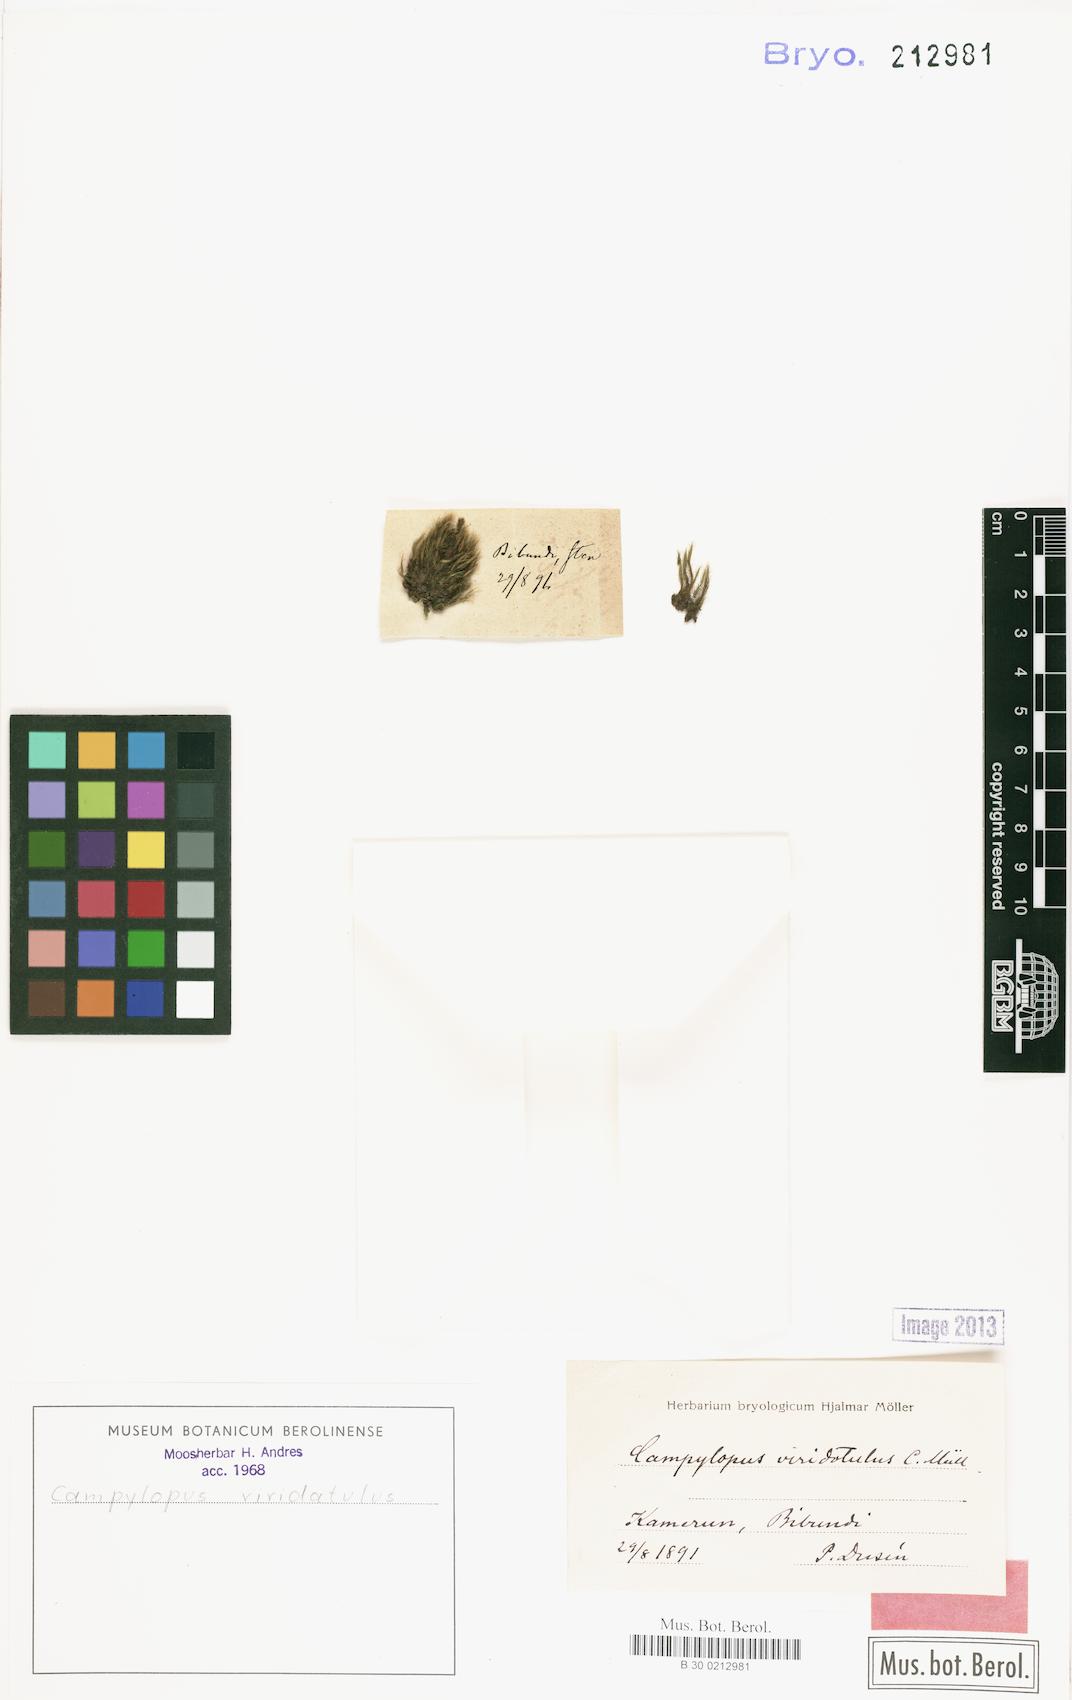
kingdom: Plantae
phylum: Bryophyta
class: Bryopsida
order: Dicranales
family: Leucobryaceae
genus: Campylopus
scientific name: Campylopus savannarum
